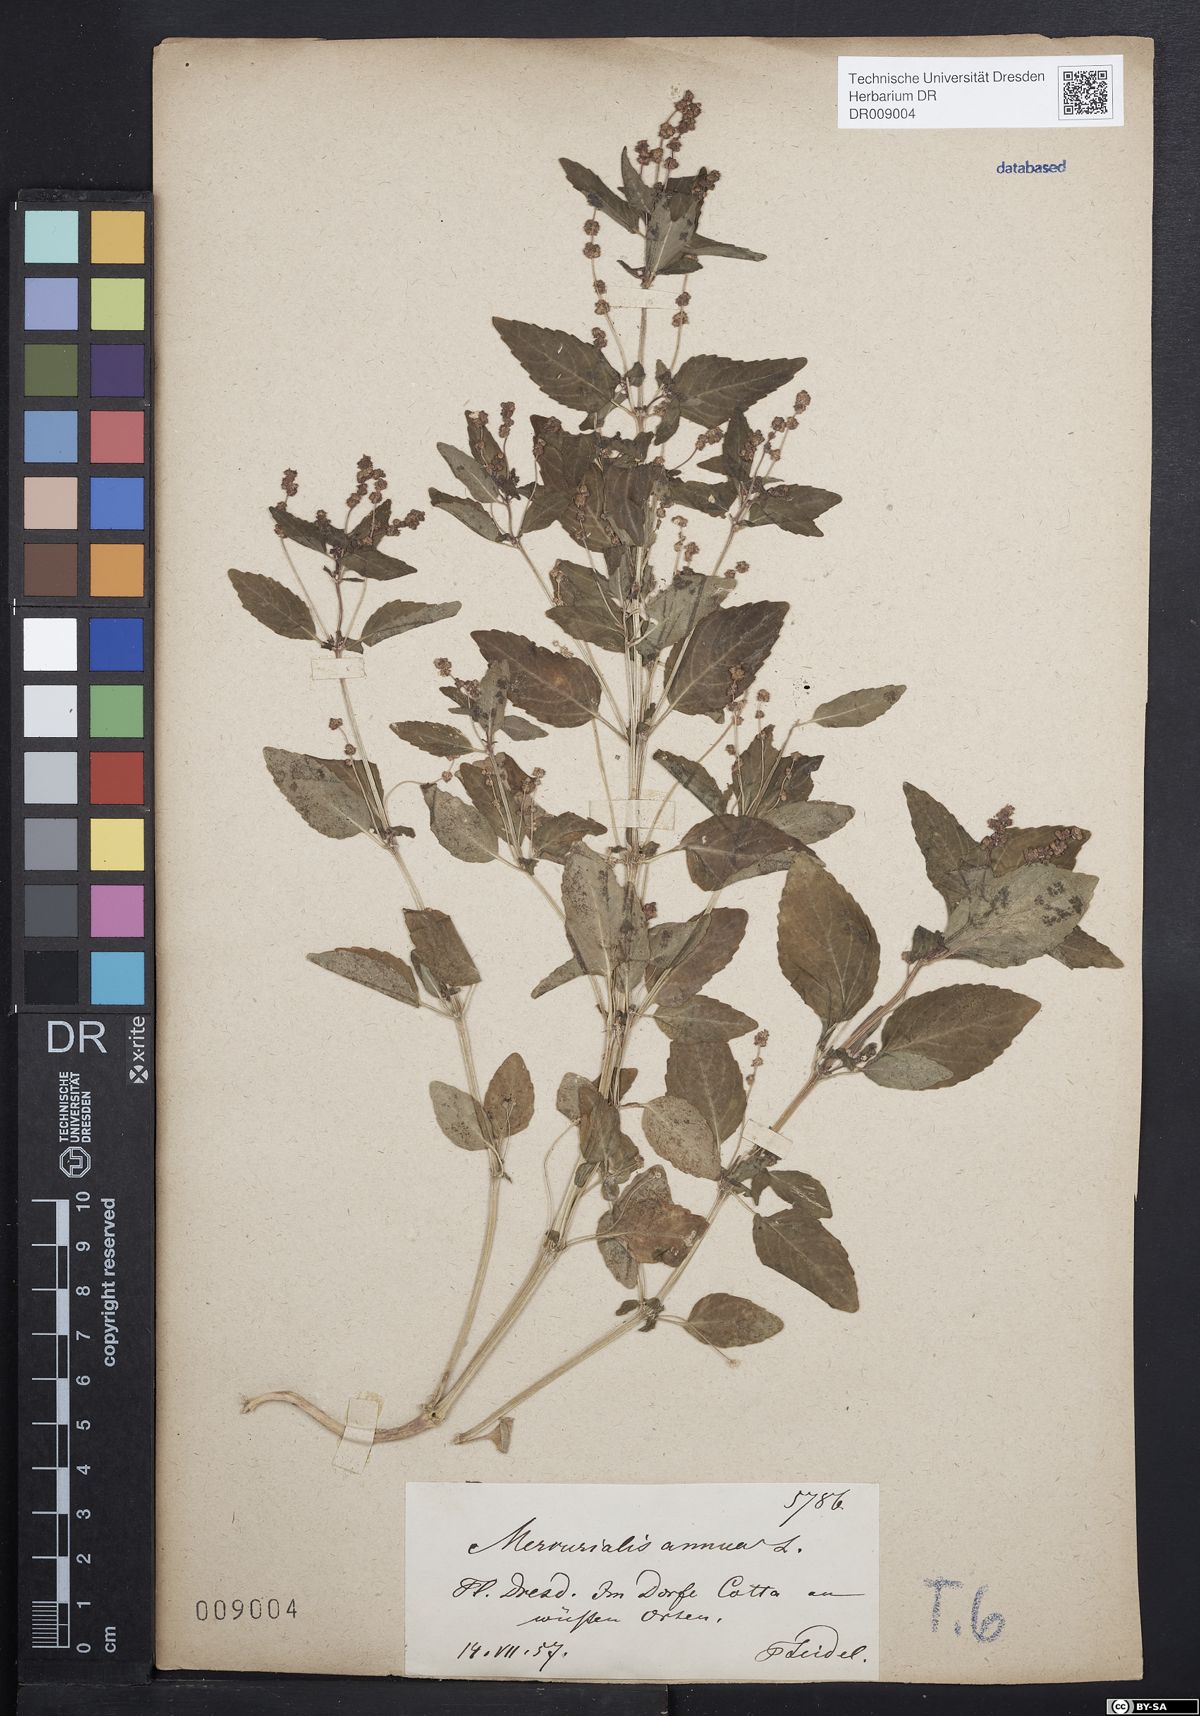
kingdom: Plantae
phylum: Tracheophyta
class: Magnoliopsida
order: Malpighiales
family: Euphorbiaceae
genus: Mercurialis
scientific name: Mercurialis annua
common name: Annual mercury
